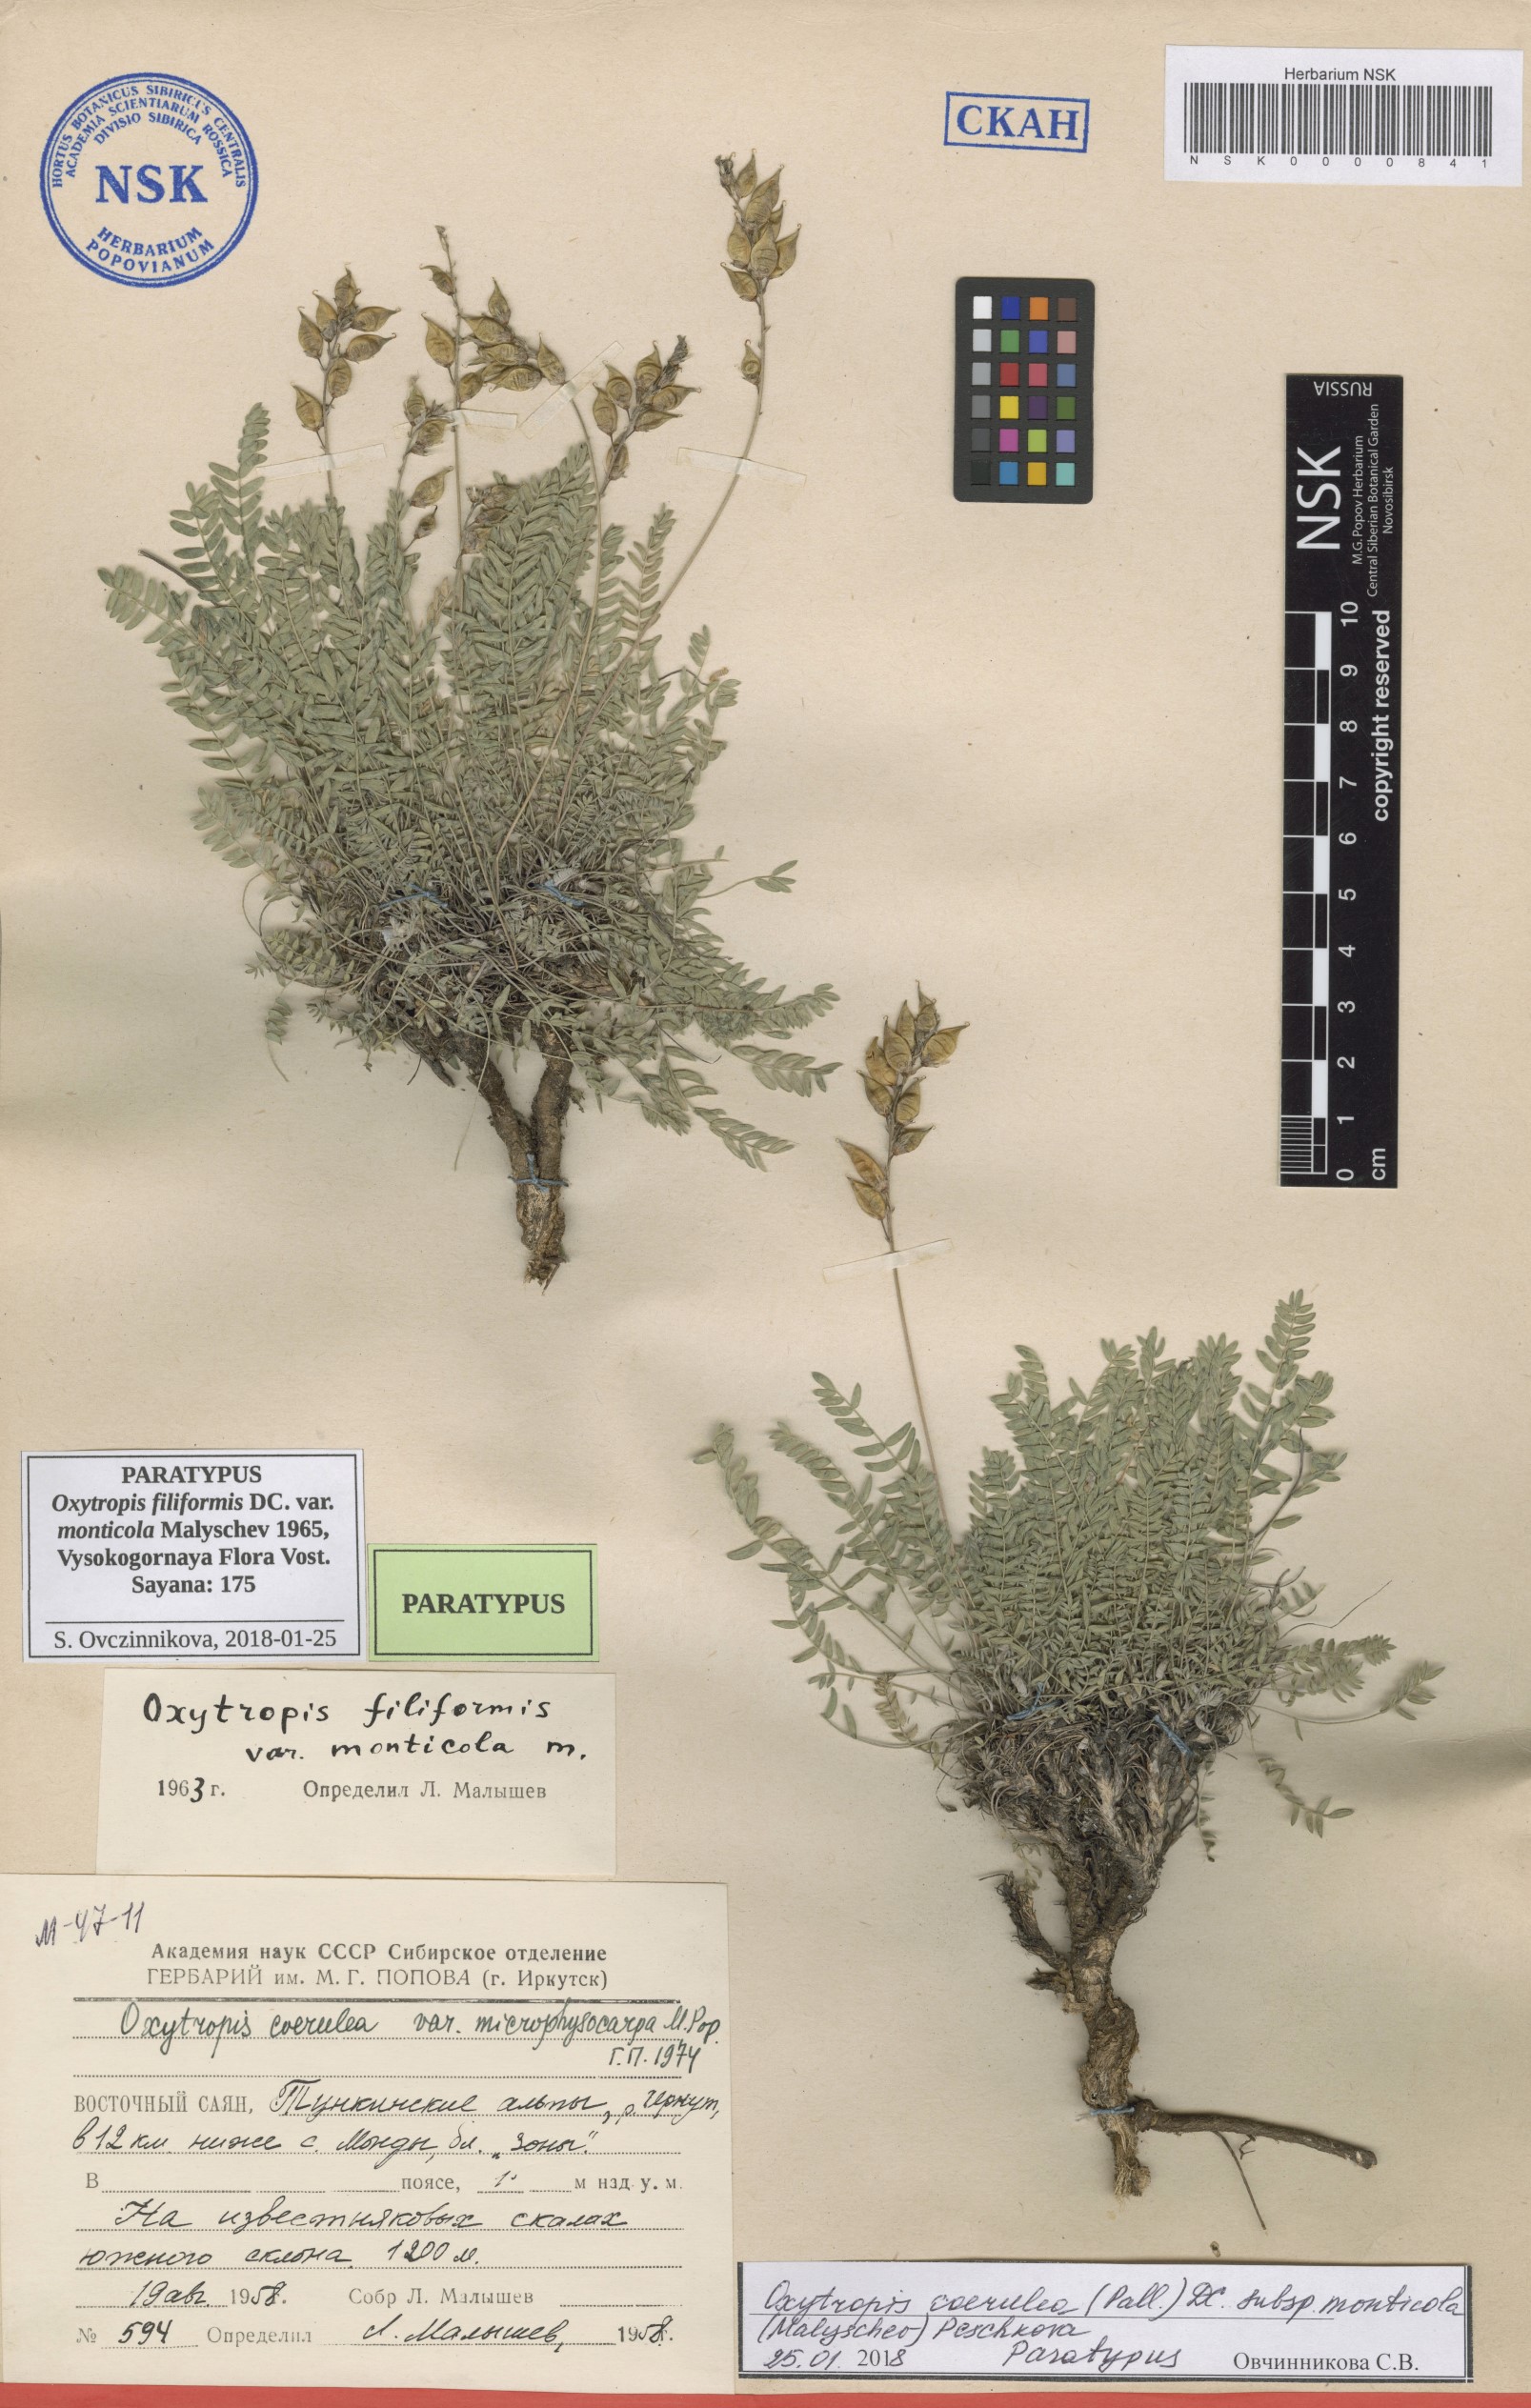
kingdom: Plantae
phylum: Tracheophyta
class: Magnoliopsida
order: Fabales
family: Fabaceae
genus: Oxytropis
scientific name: Oxytropis coerulea
